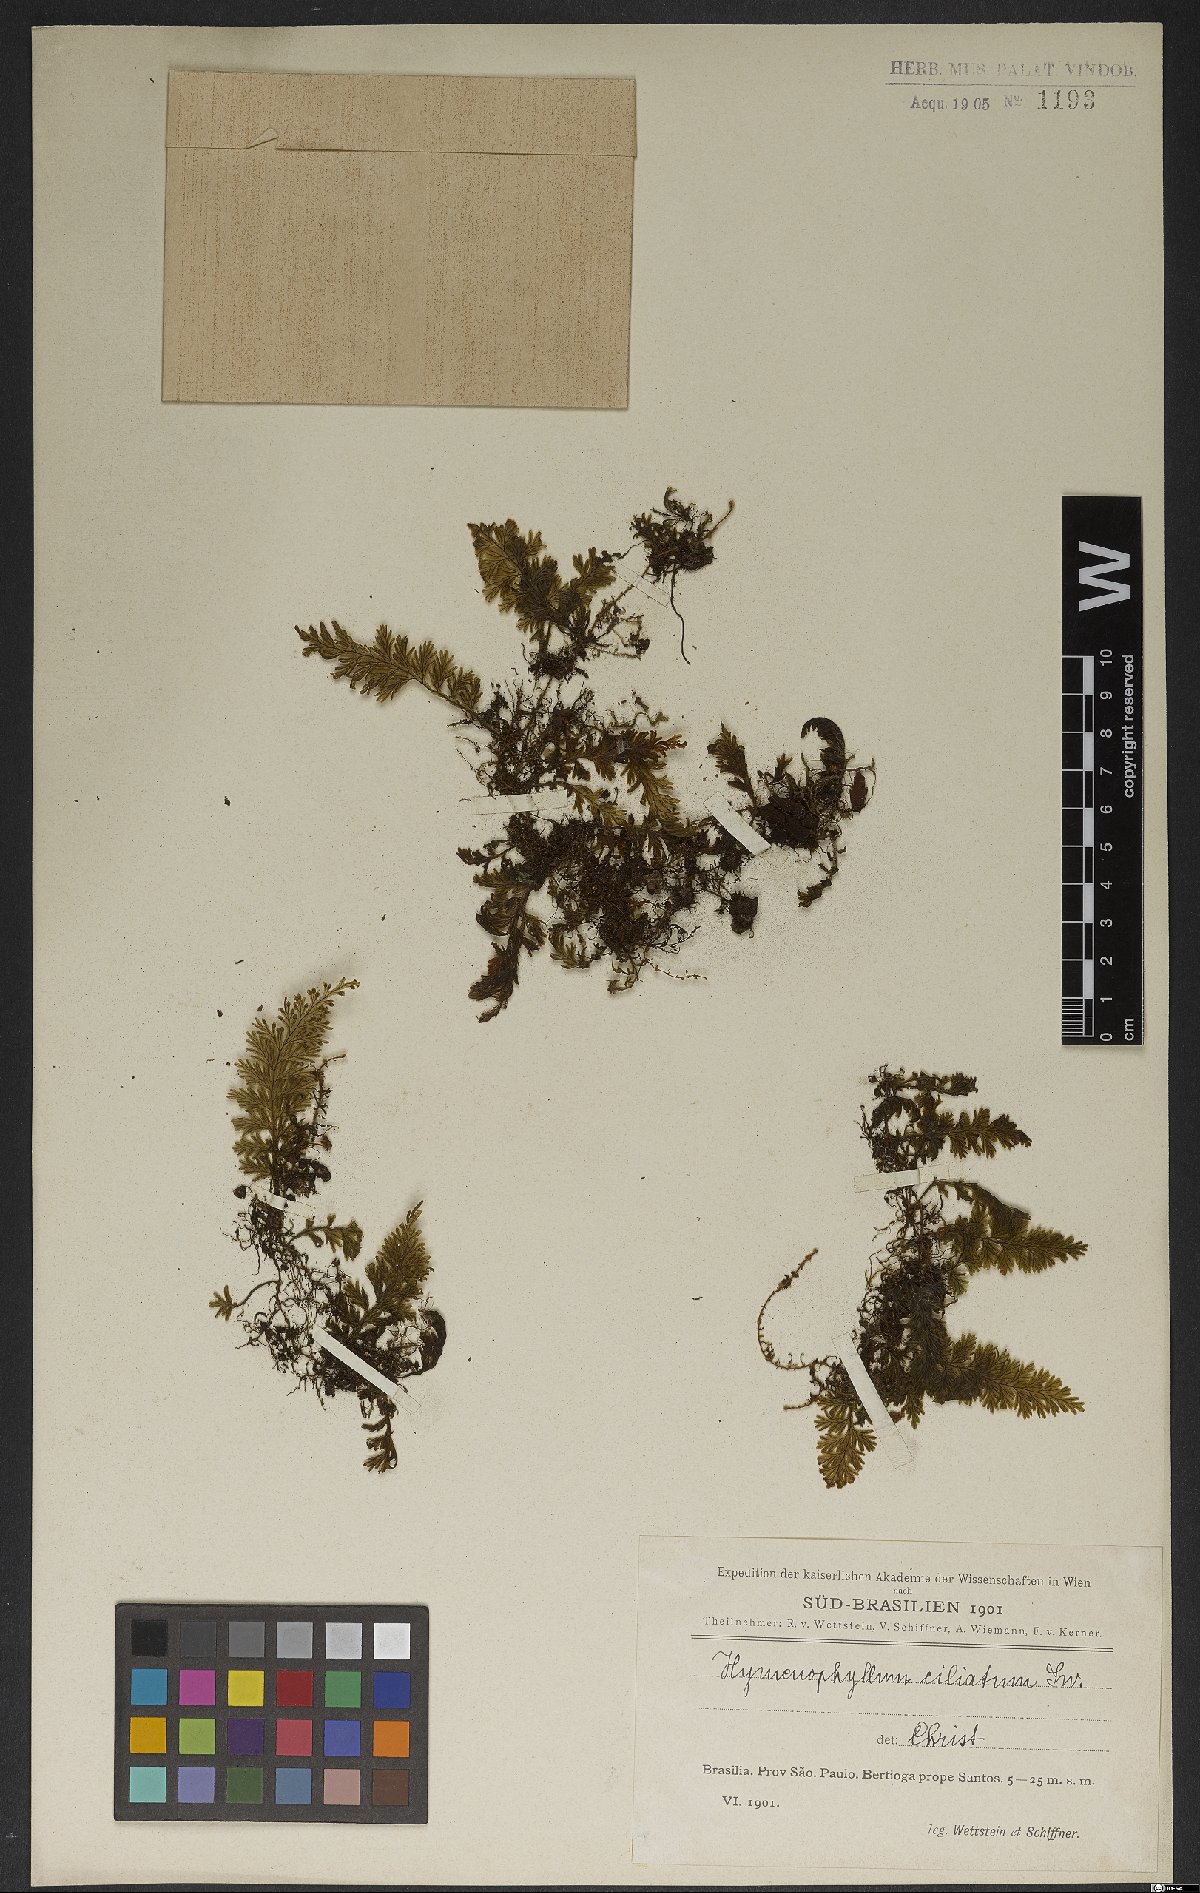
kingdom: Plantae
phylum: Tracheophyta
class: Polypodiopsida
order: Hymenophyllales
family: Hymenophyllaceae
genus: Hymenophyllum
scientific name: Hymenophyllum hirsutum
